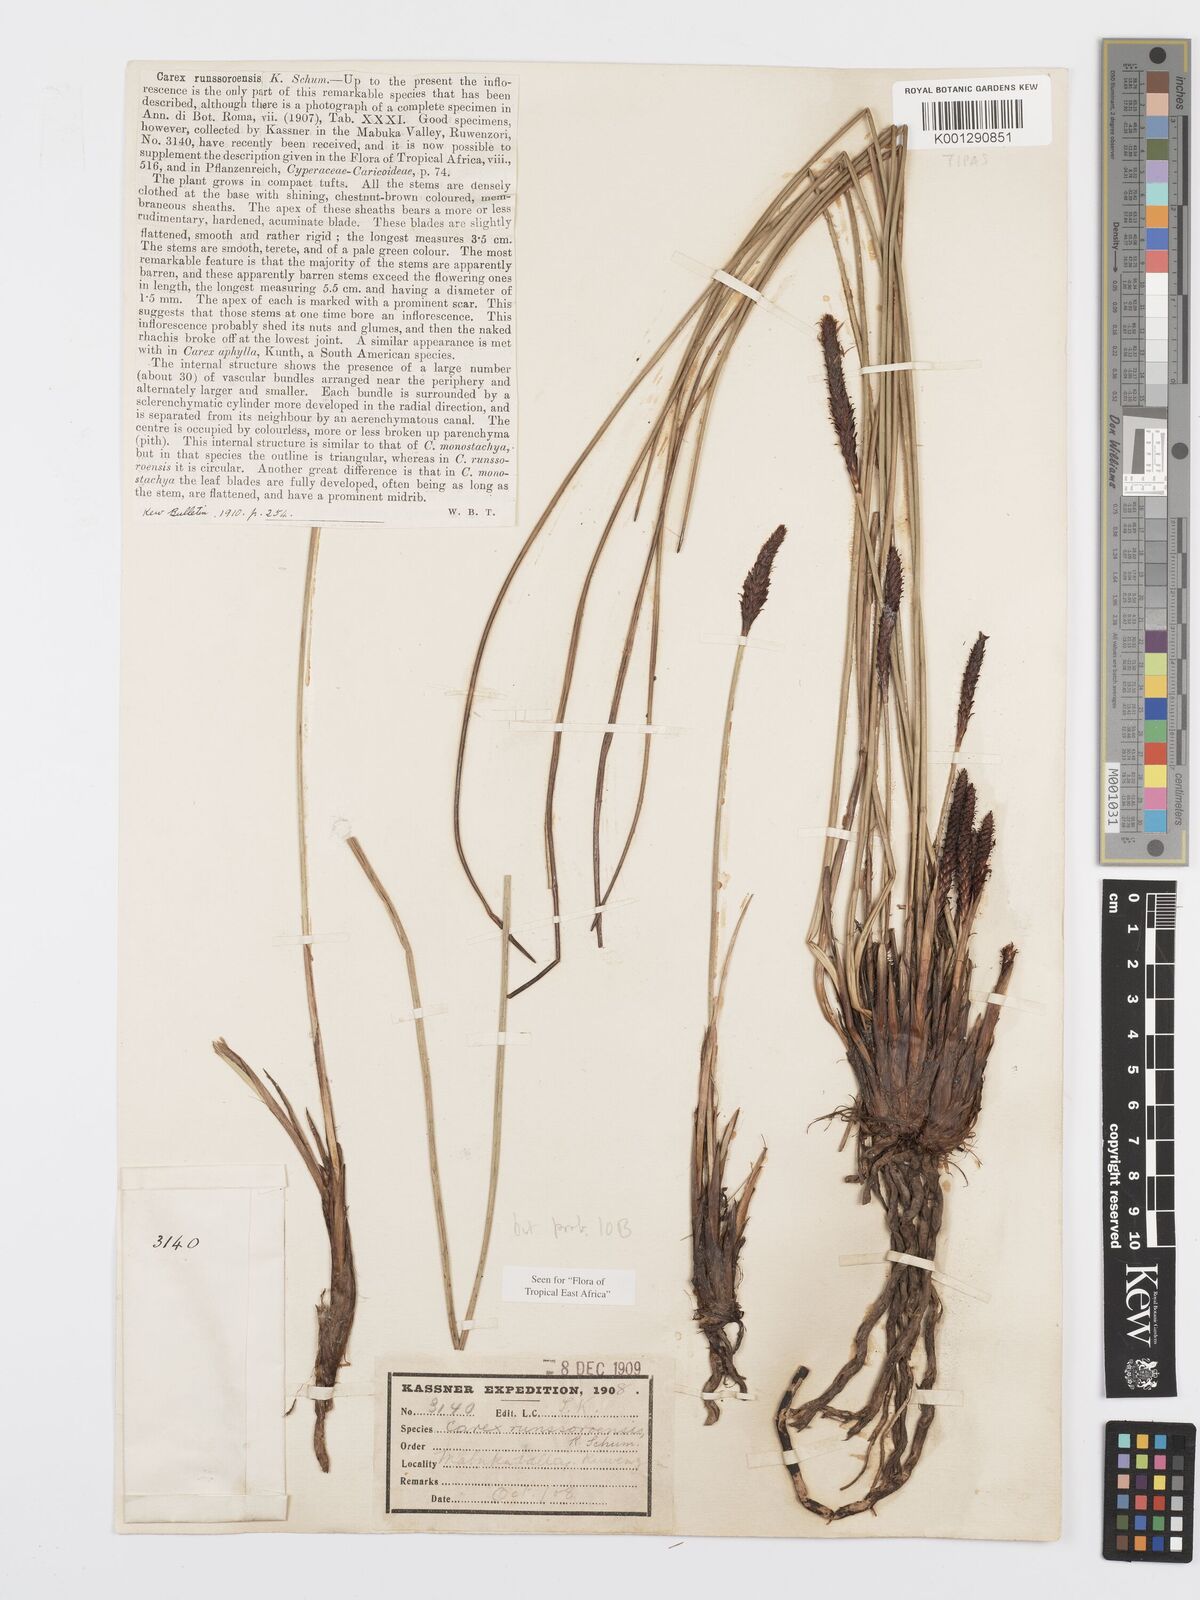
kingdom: Plantae
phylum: Tracheophyta
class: Liliopsida
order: Poales
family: Cyperaceae
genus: Carex
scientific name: Carex runssoroensis
